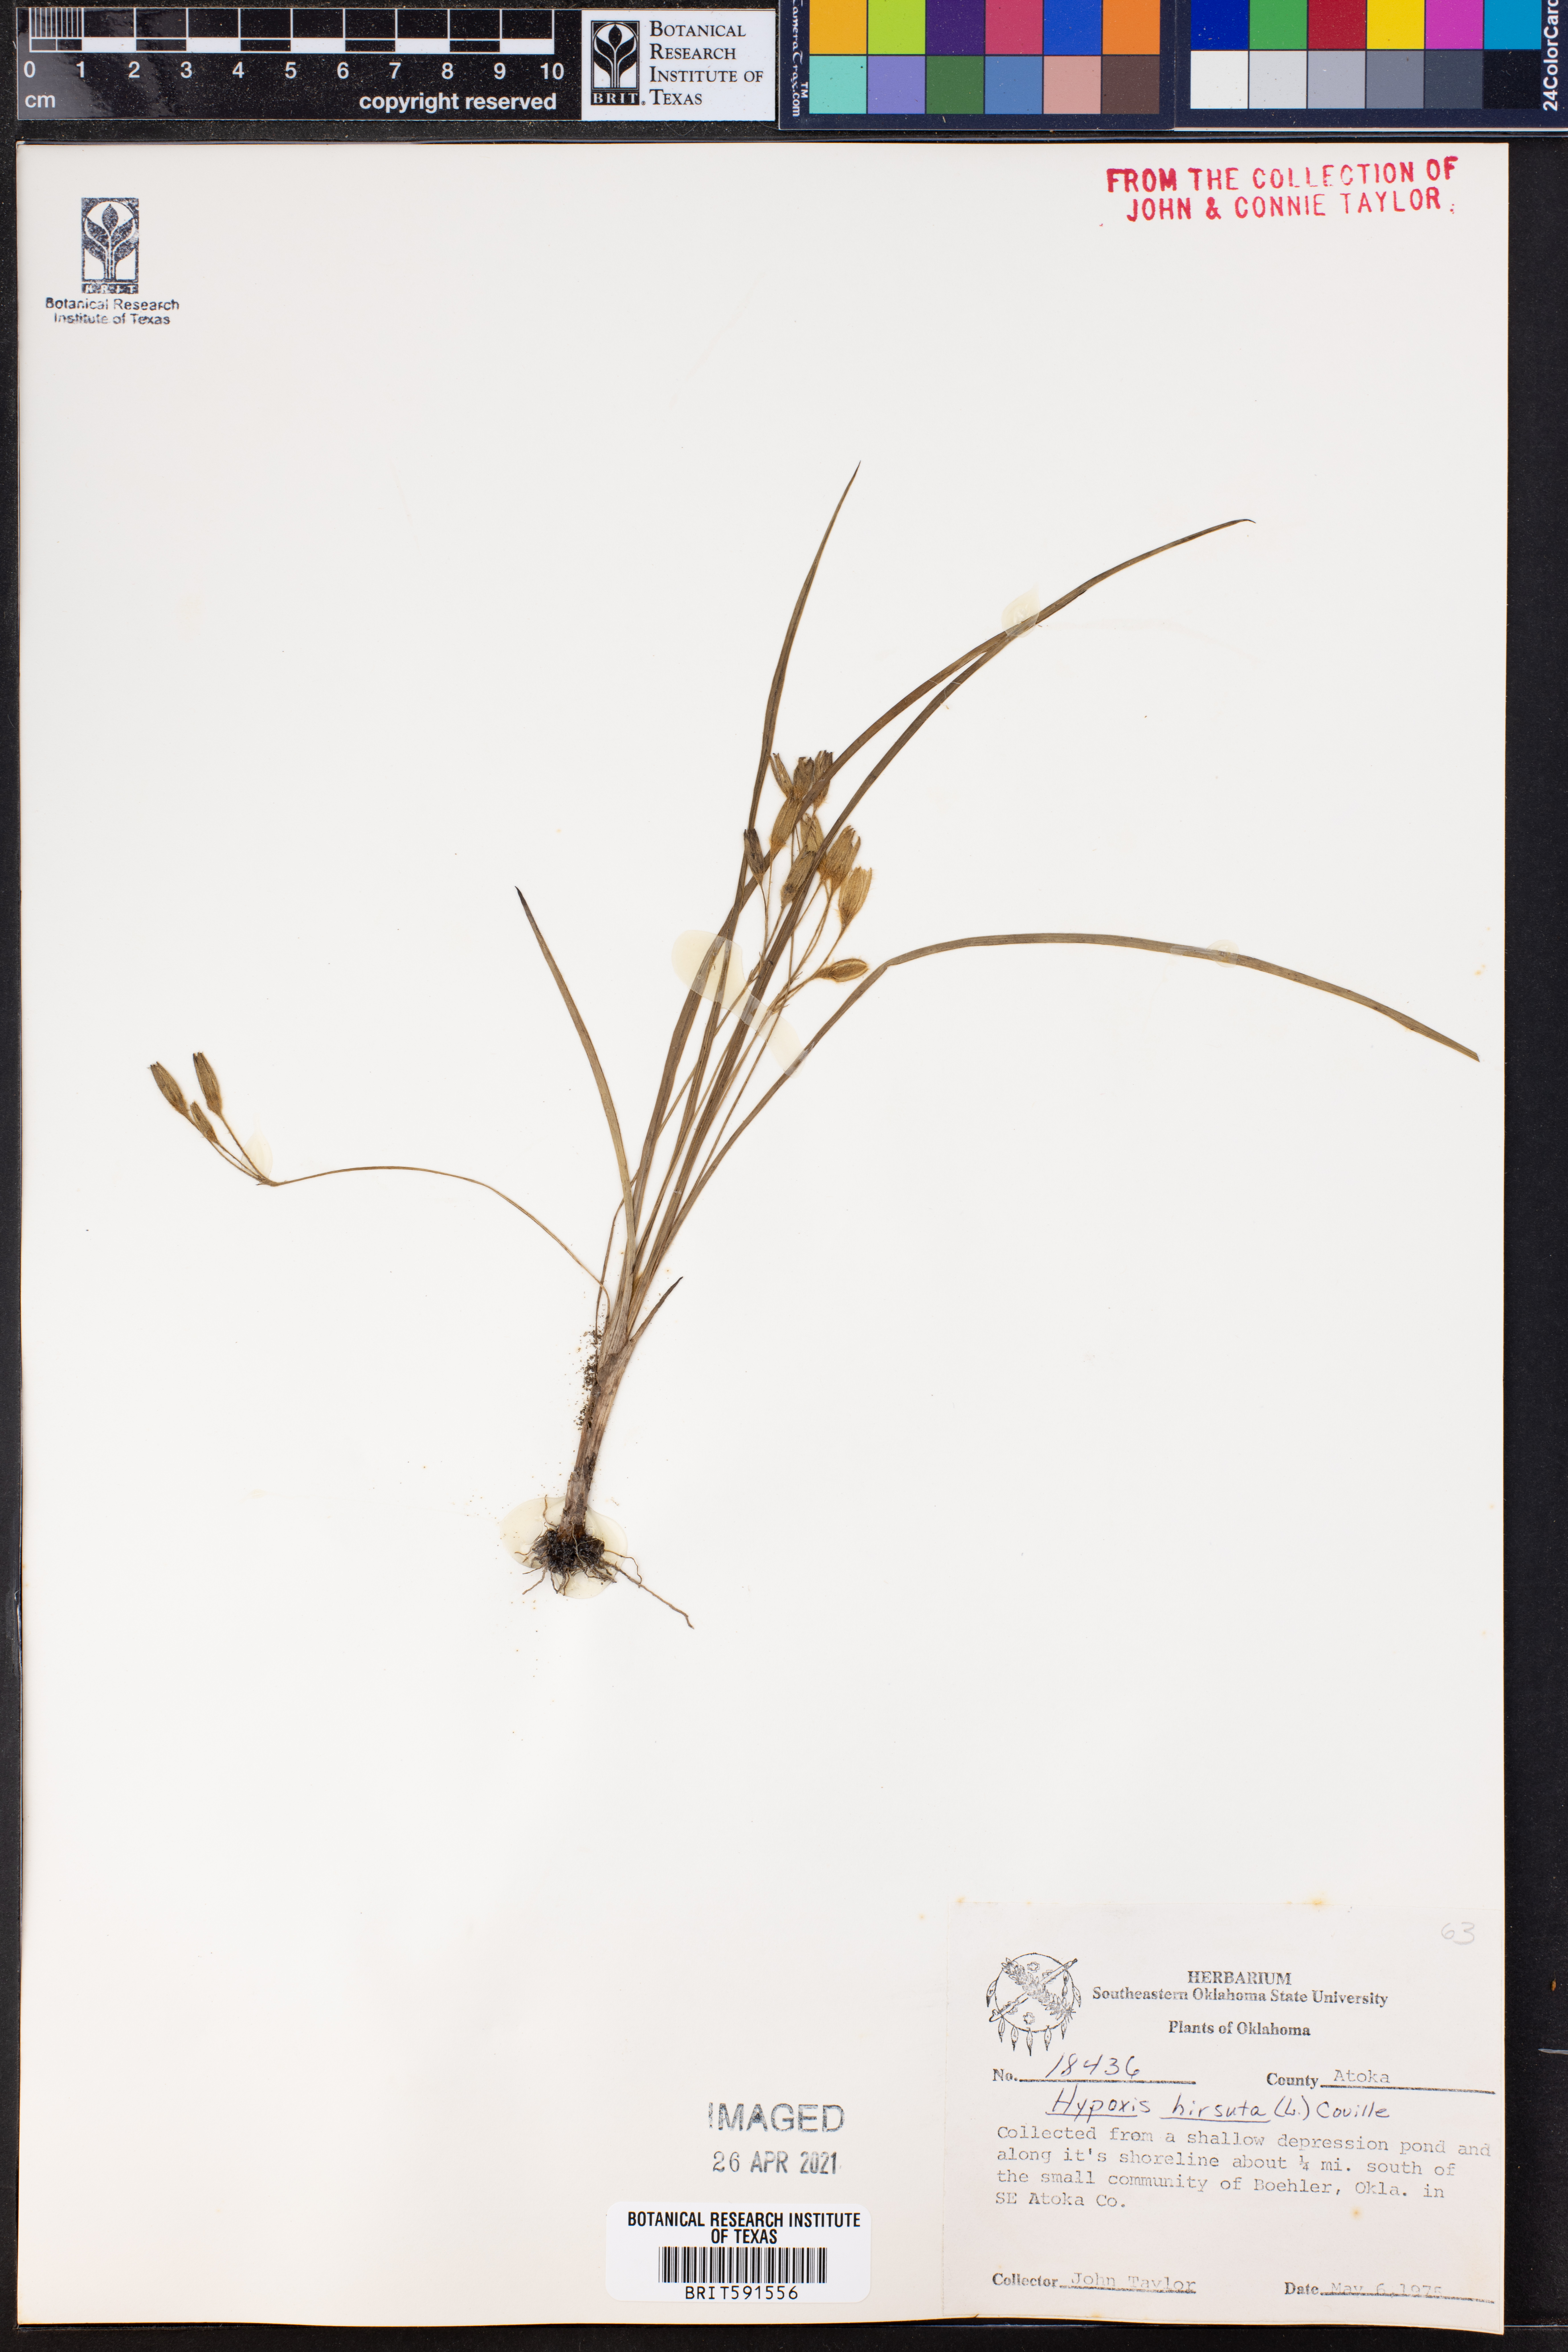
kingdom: Plantae
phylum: Tracheophyta
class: Liliopsida
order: Asparagales
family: Hypoxidaceae
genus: Hypoxis
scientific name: Hypoxis hirsuta
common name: Common goldstar
